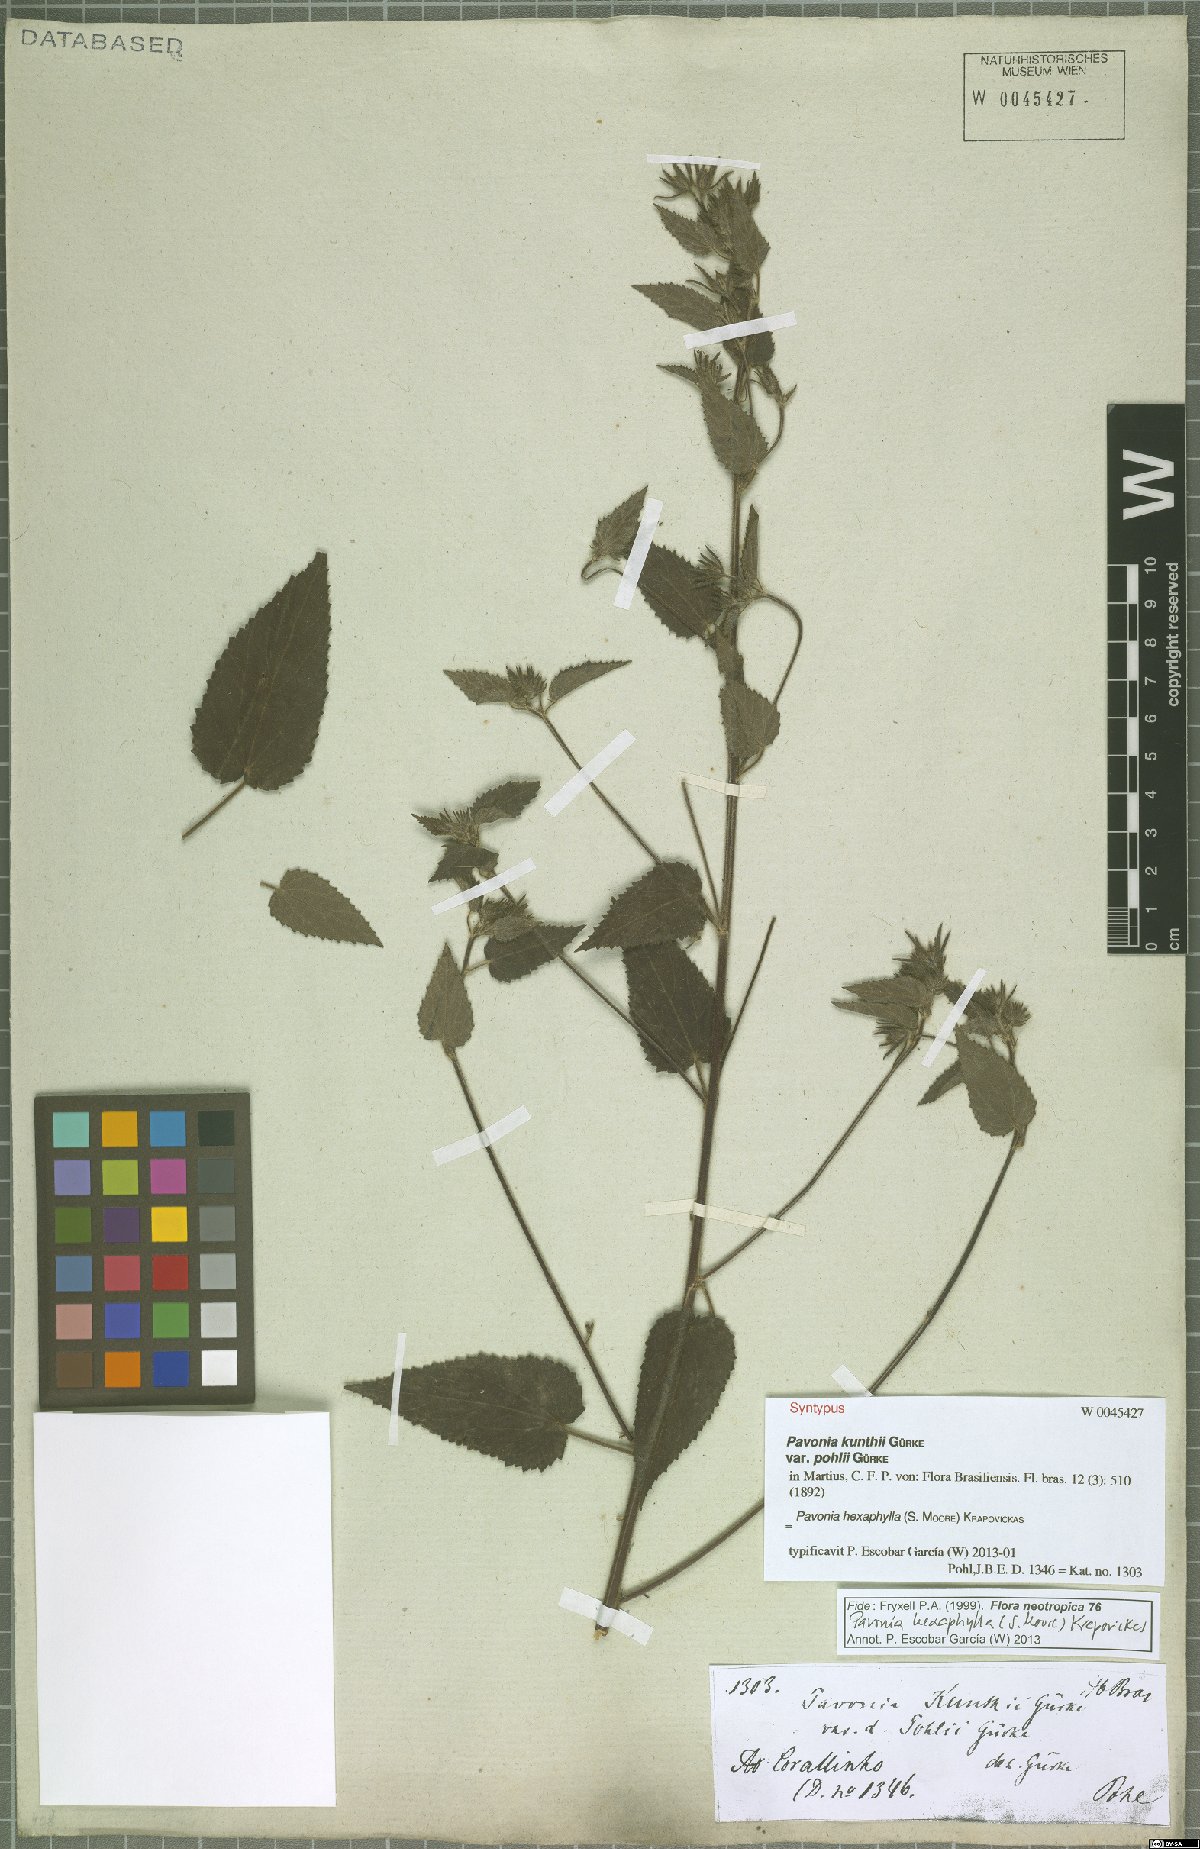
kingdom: Plantae
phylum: Tracheophyta
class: Magnoliopsida
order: Malvales
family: Malvaceae
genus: Pavonia
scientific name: Pavonia hexaphylla
